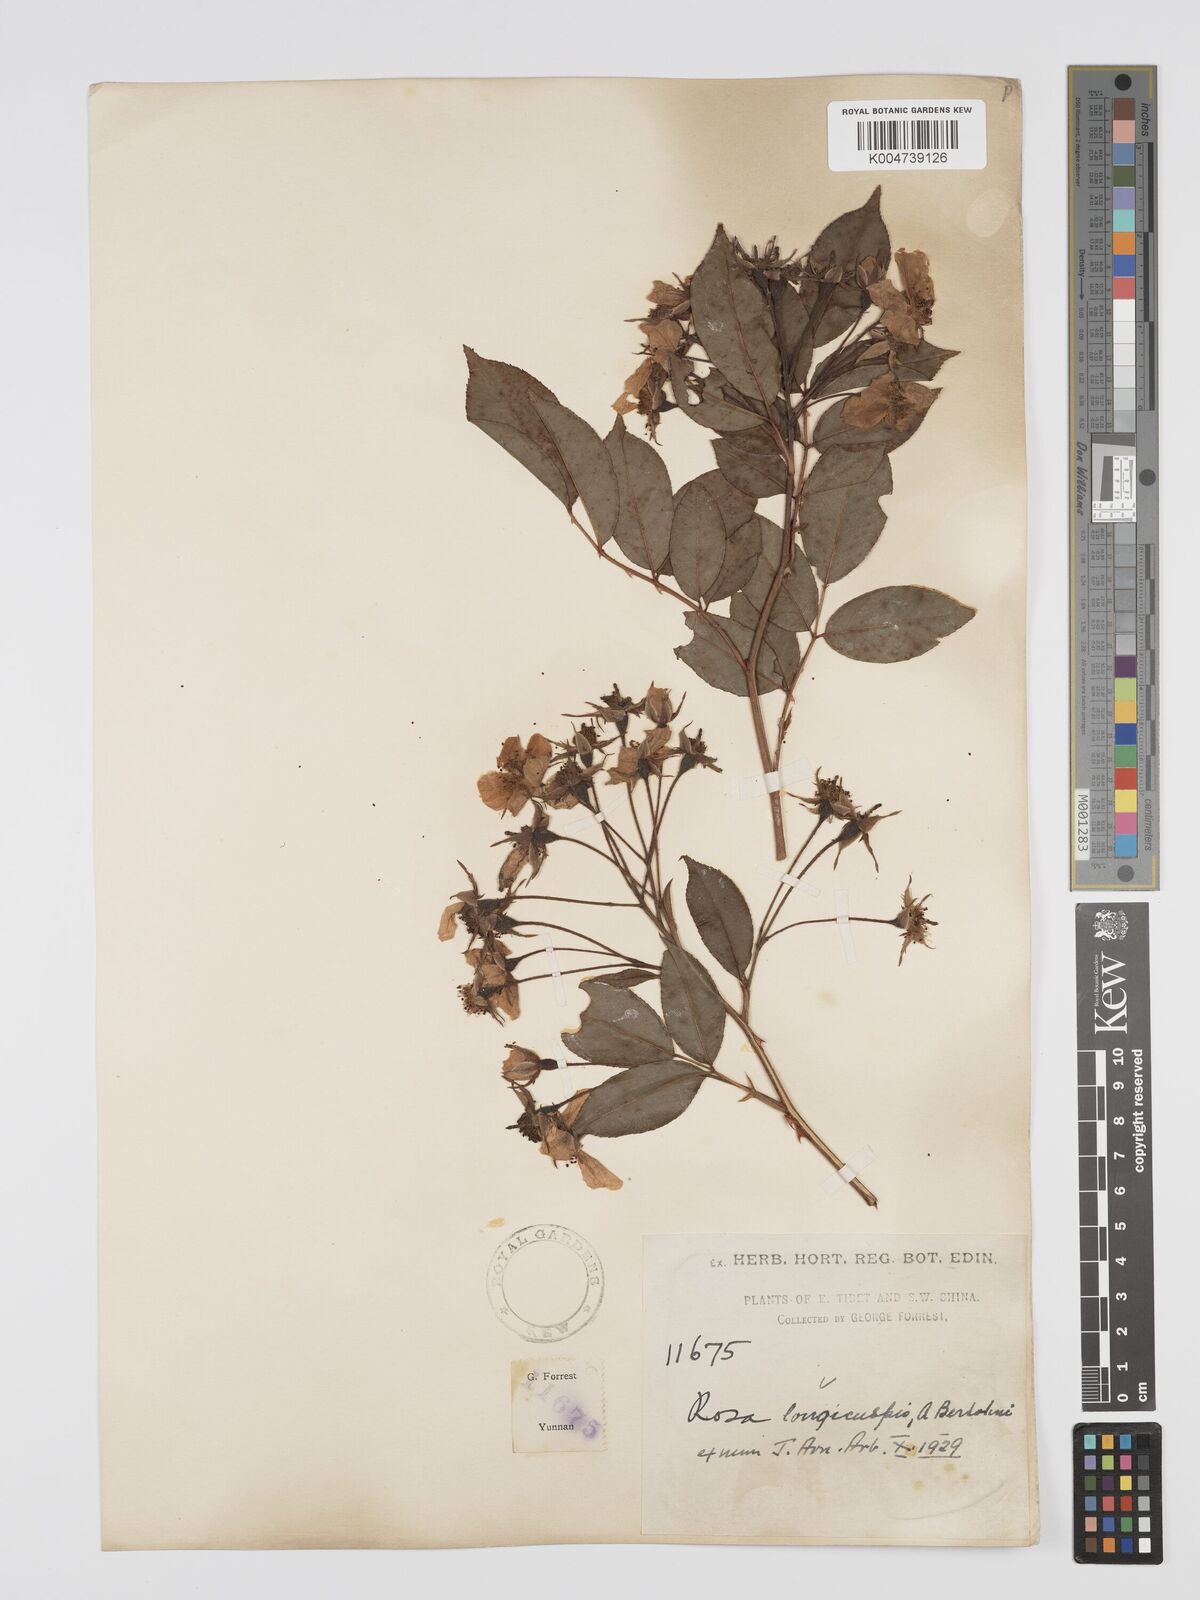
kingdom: Plantae
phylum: Tracheophyta
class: Magnoliopsida
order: Rosales
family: Rosaceae
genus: Rosa
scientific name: Rosa longicuspis
